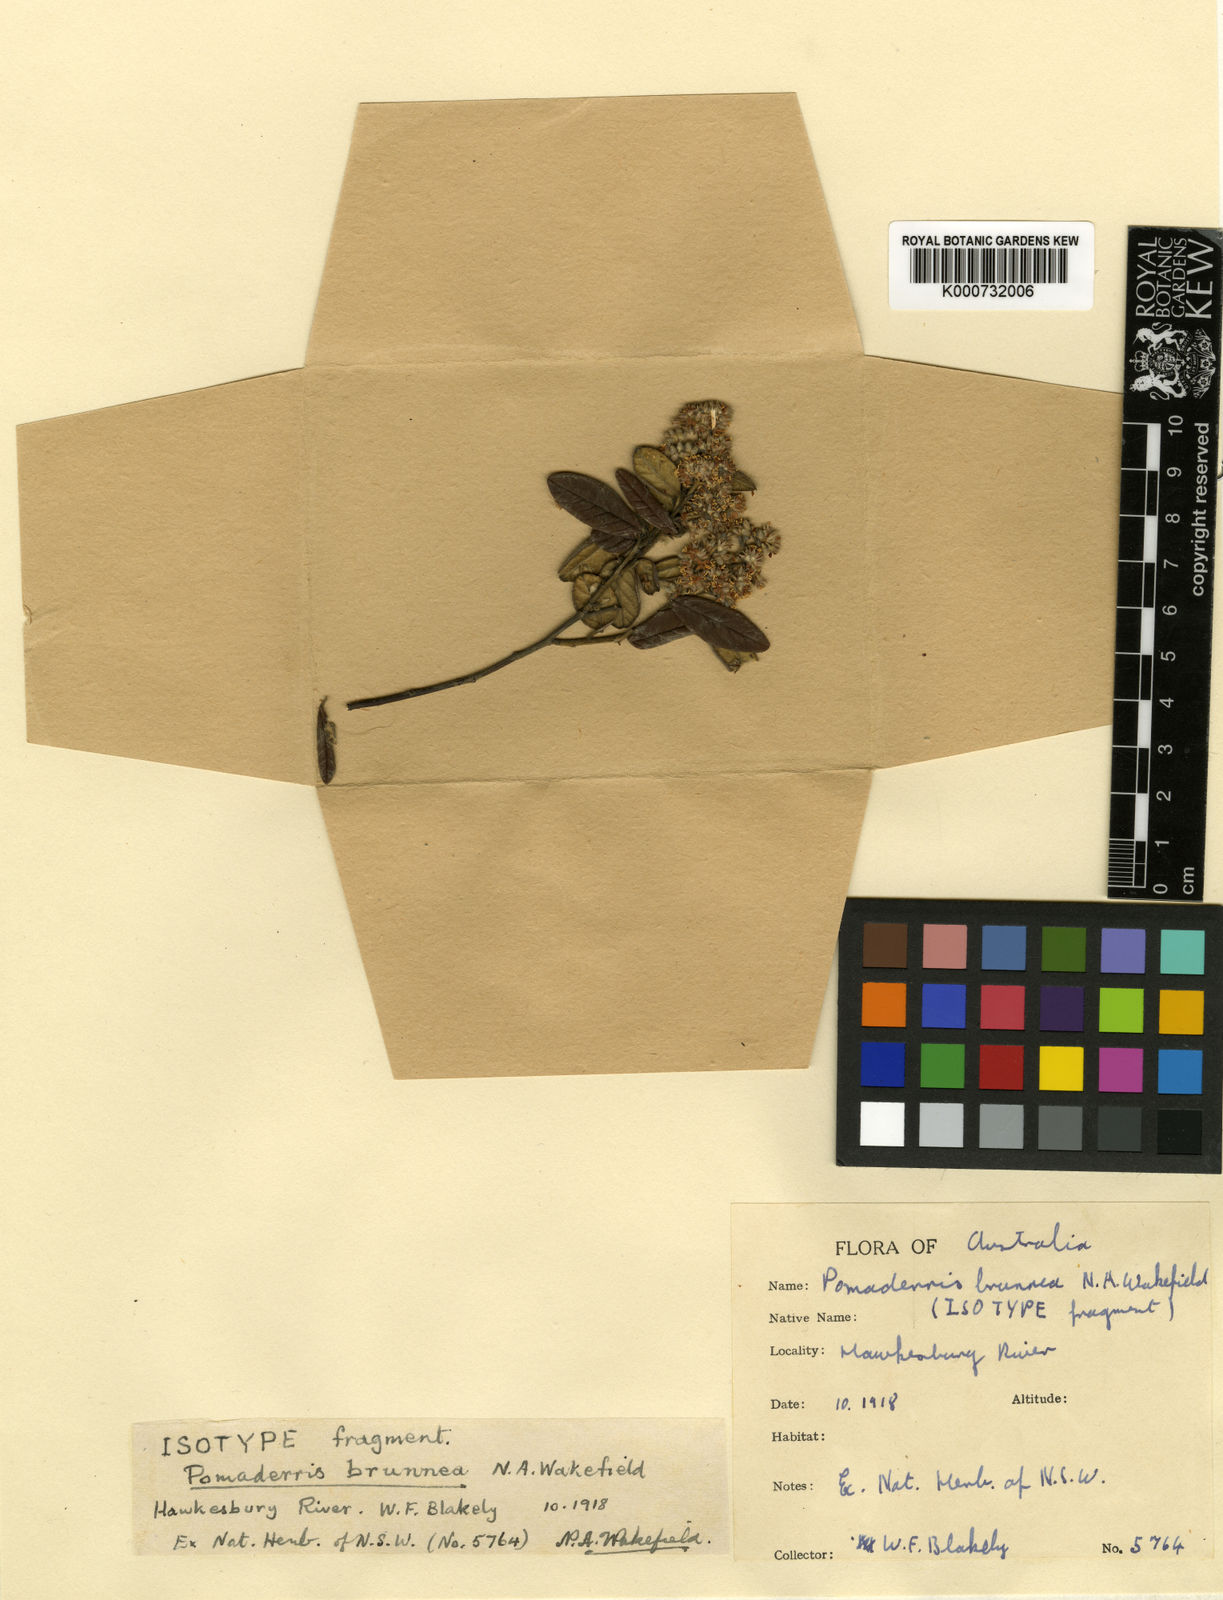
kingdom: Plantae
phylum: Tracheophyta
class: Magnoliopsida
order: Rosales
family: Rhamnaceae
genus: Pomaderris
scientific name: Pomaderris brunnea
